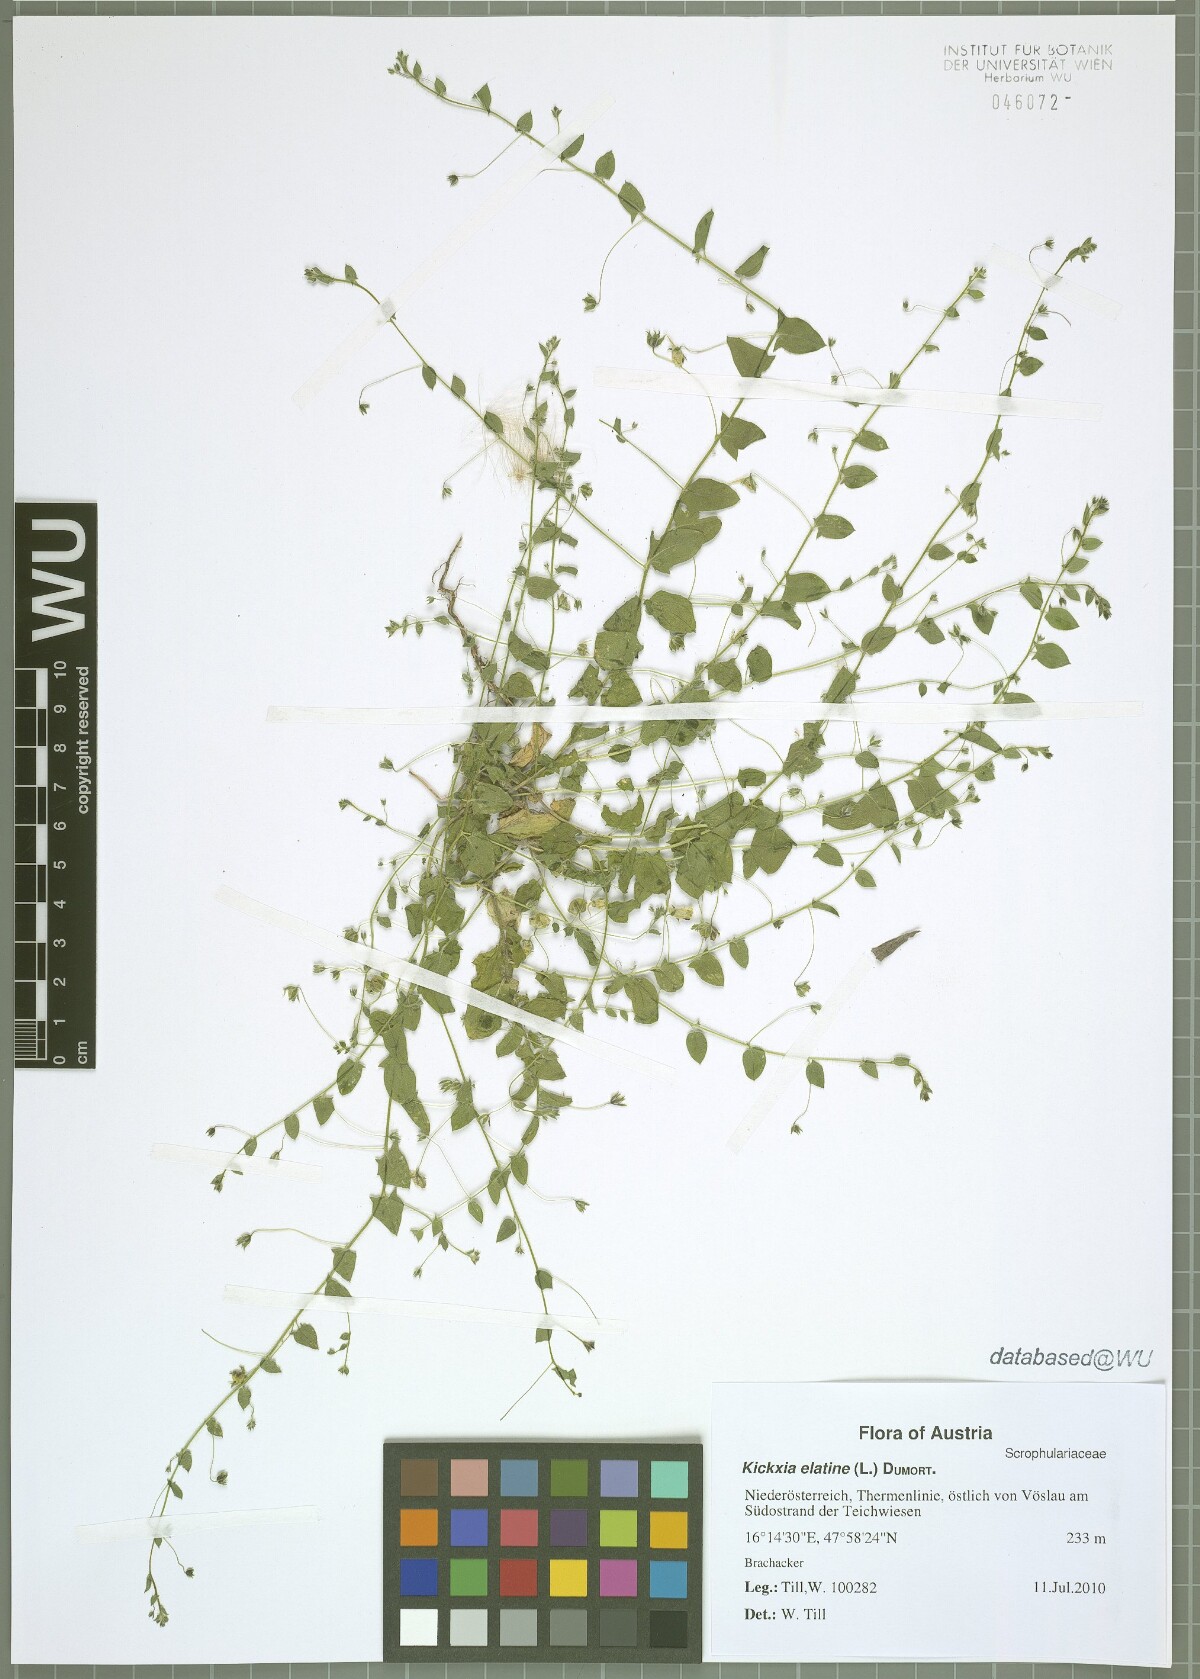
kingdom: Plantae
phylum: Tracheophyta
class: Magnoliopsida
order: Lamiales
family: Plantaginaceae
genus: Kickxia
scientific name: Kickxia elatine
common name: Sharp-leaved fluellen
